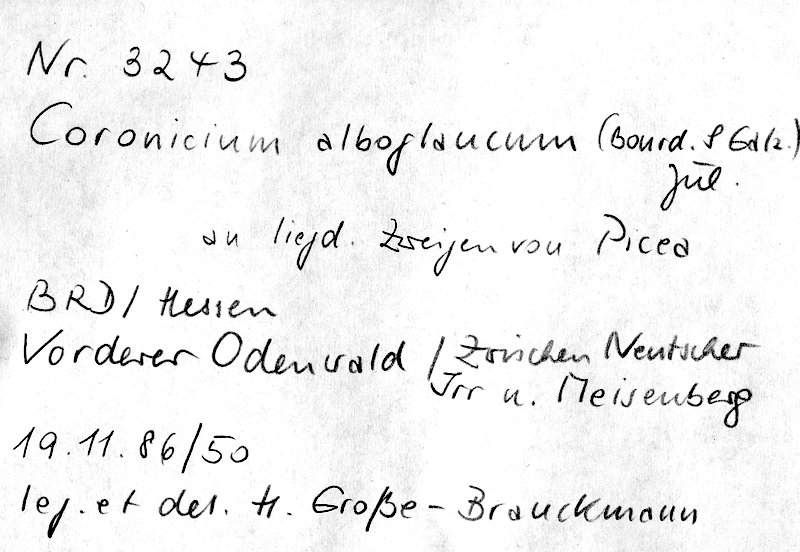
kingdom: Plantae
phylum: Tracheophyta
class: Pinopsida
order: Pinales
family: Pinaceae
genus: Picea
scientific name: Picea
